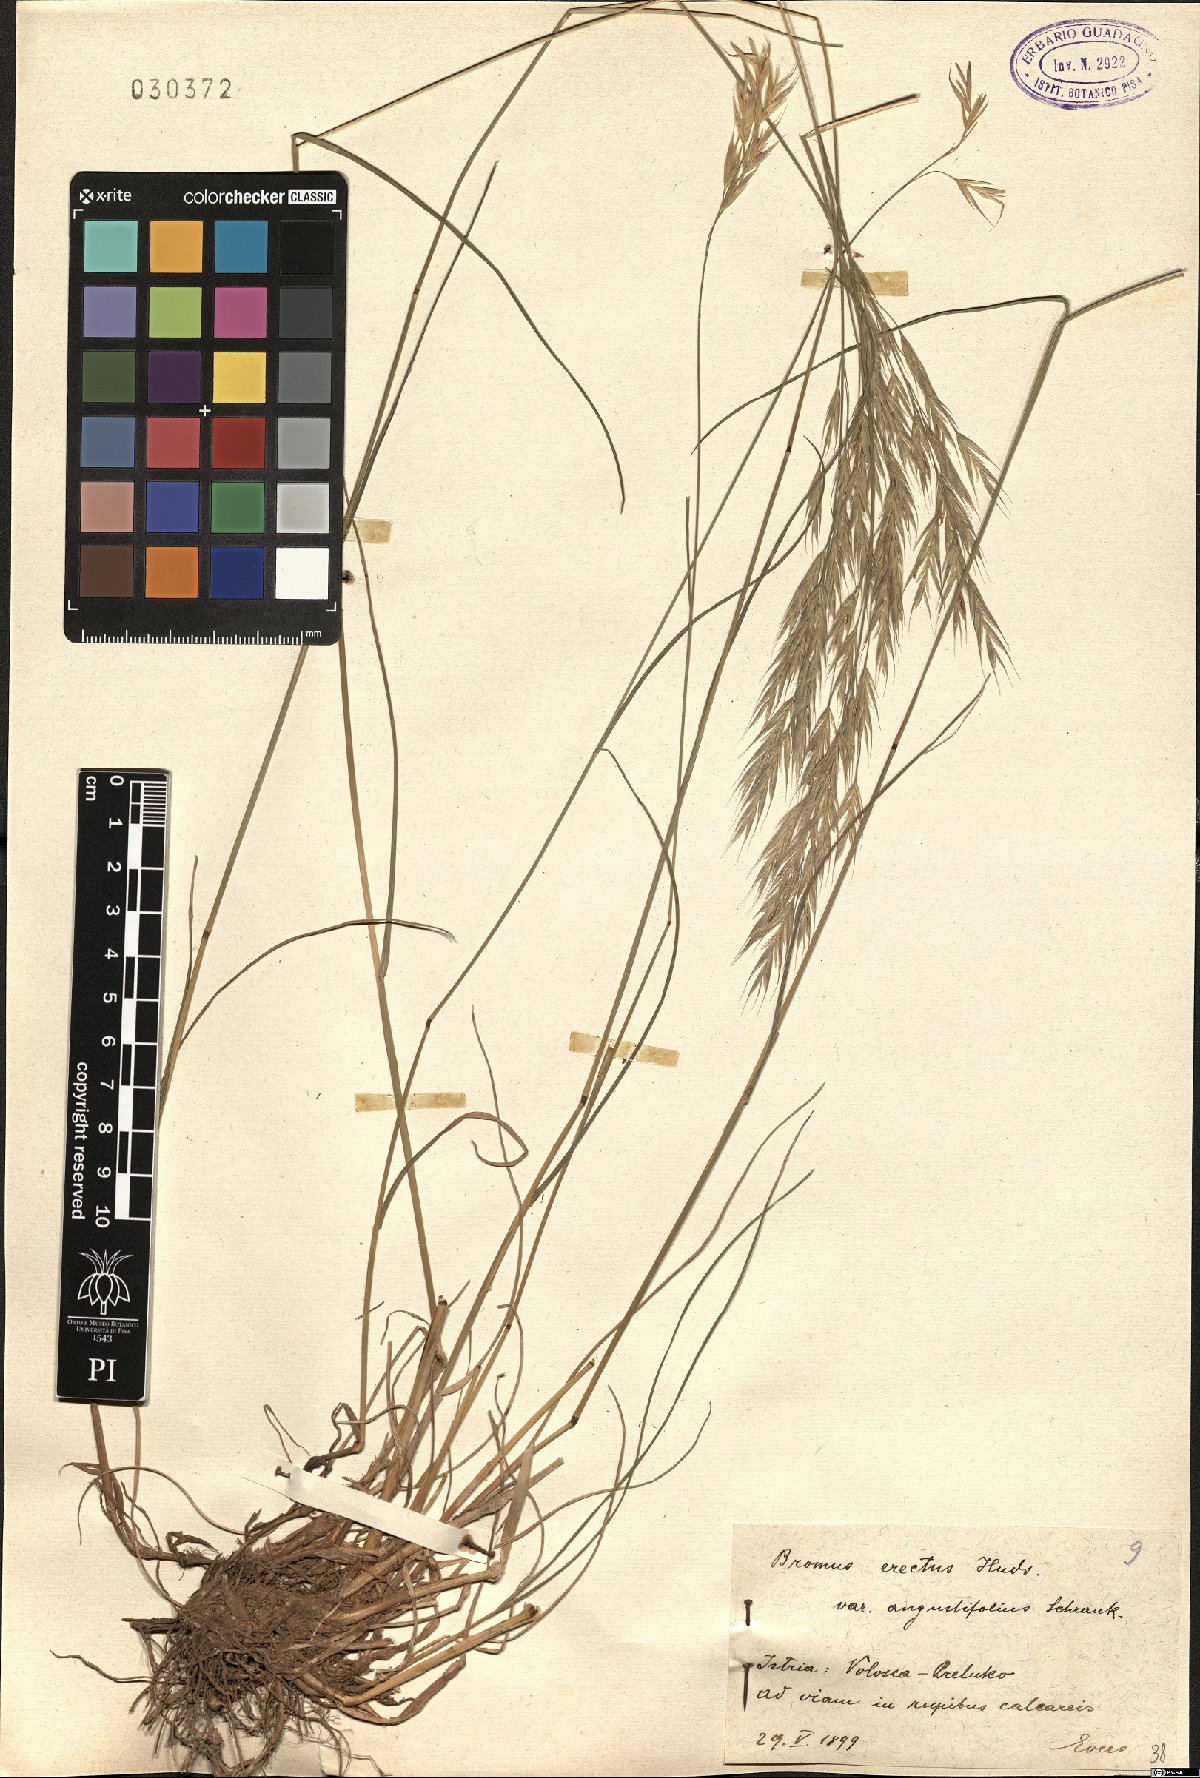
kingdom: Plantae
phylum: Tracheophyta
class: Liliopsida
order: Poales
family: Poaceae
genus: Bromus
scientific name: Bromus erectus
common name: Erect brome
